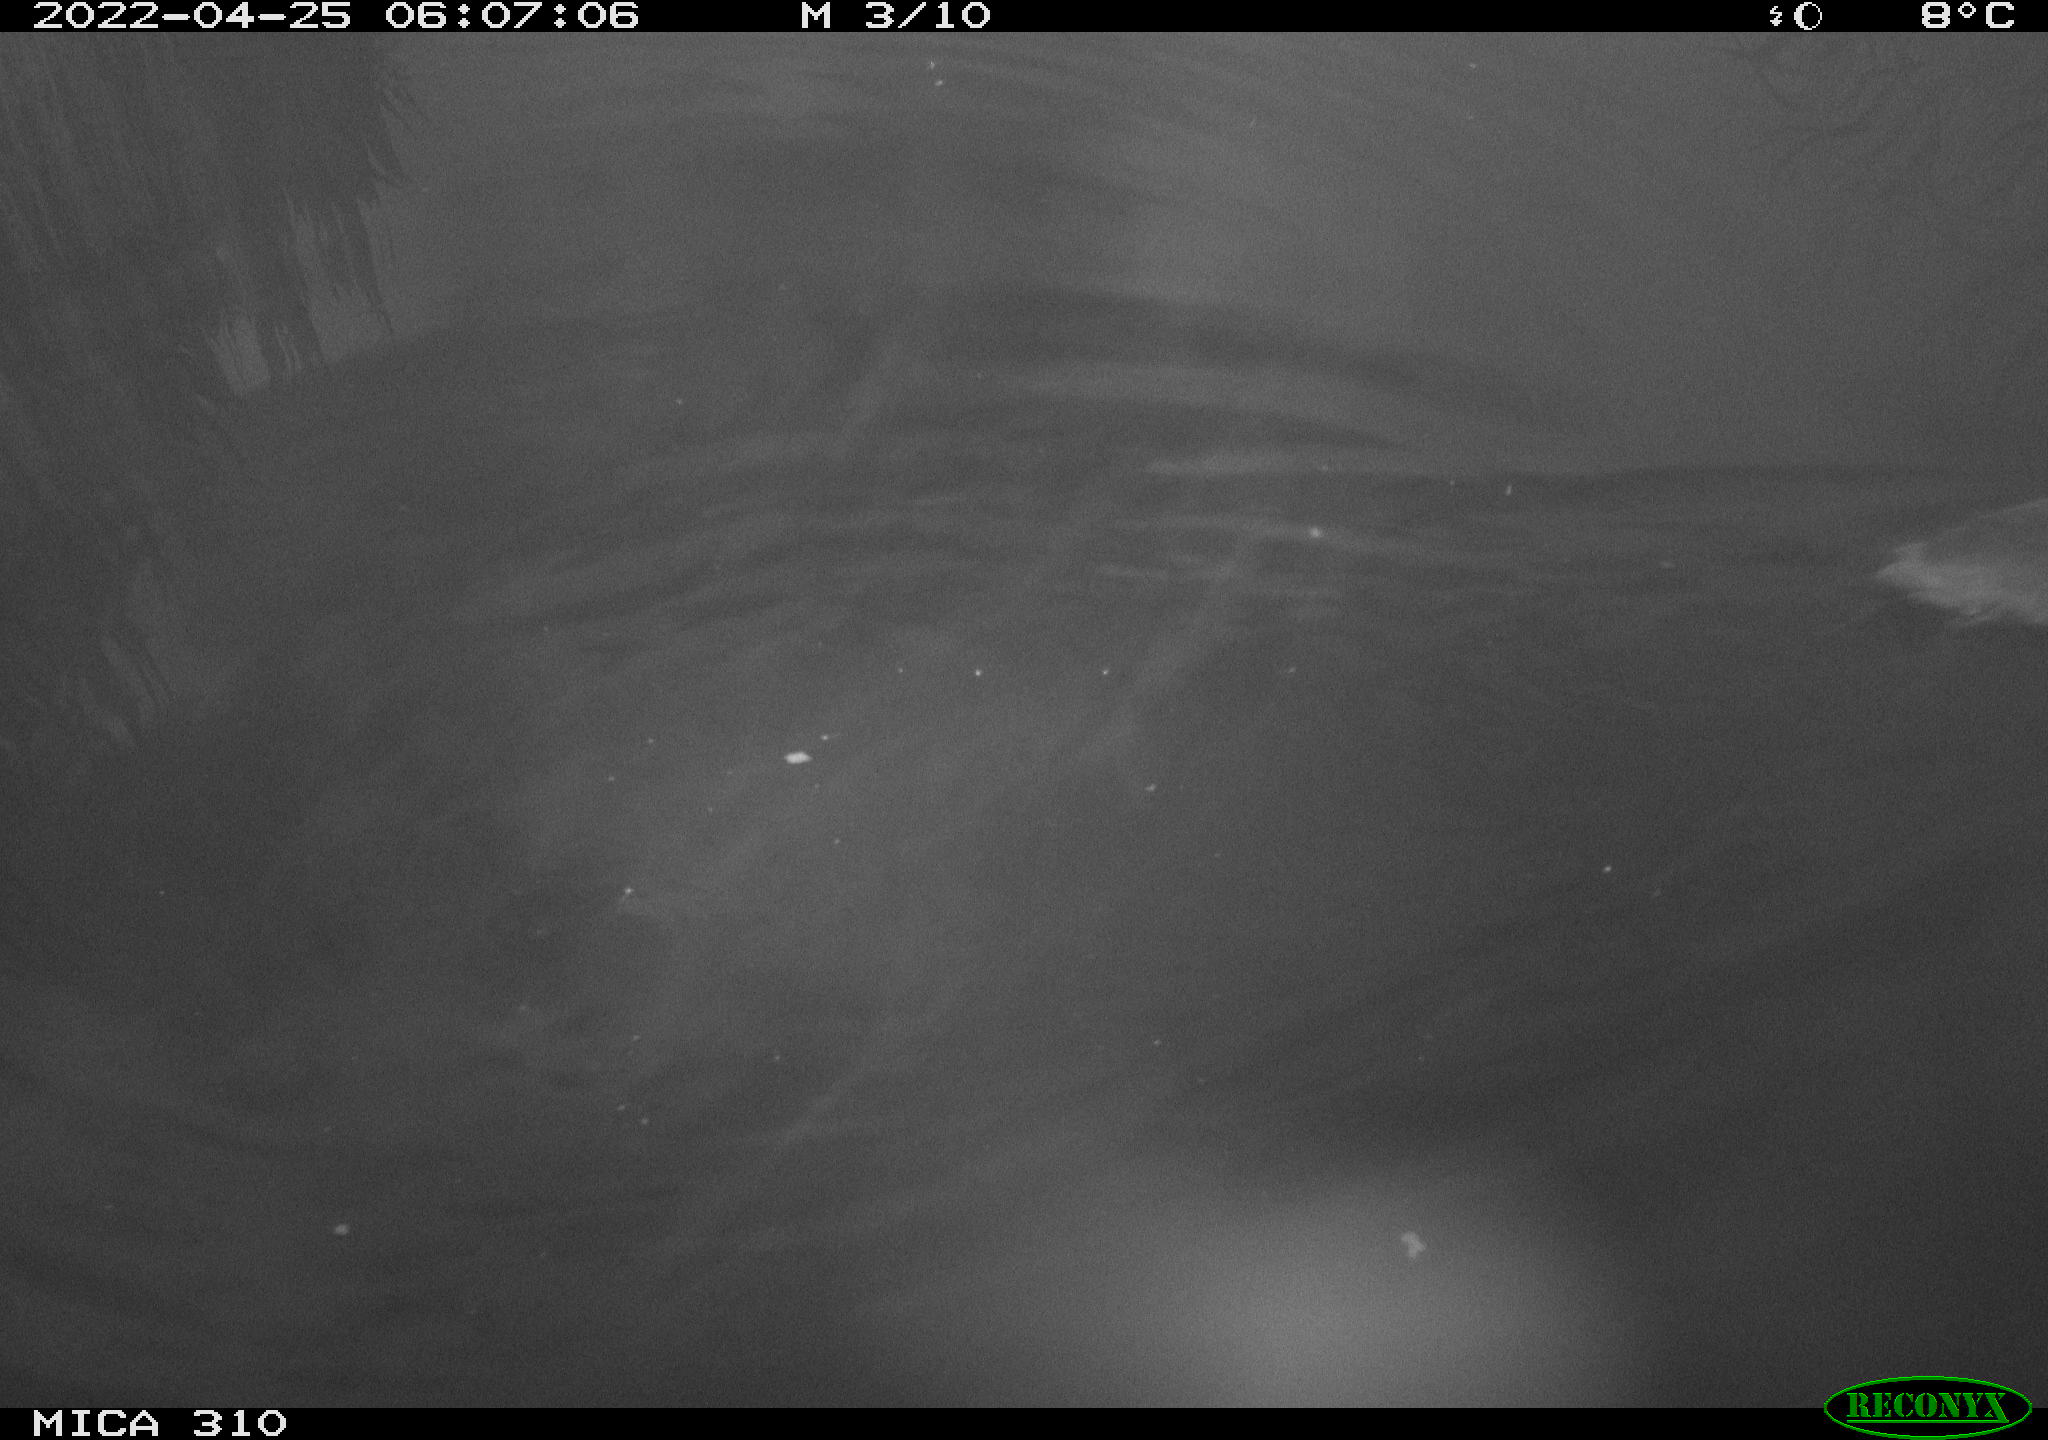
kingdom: Animalia
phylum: Chordata
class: Aves
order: Gruiformes
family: Rallidae
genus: Fulica
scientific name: Fulica atra
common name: Eurasian coot
